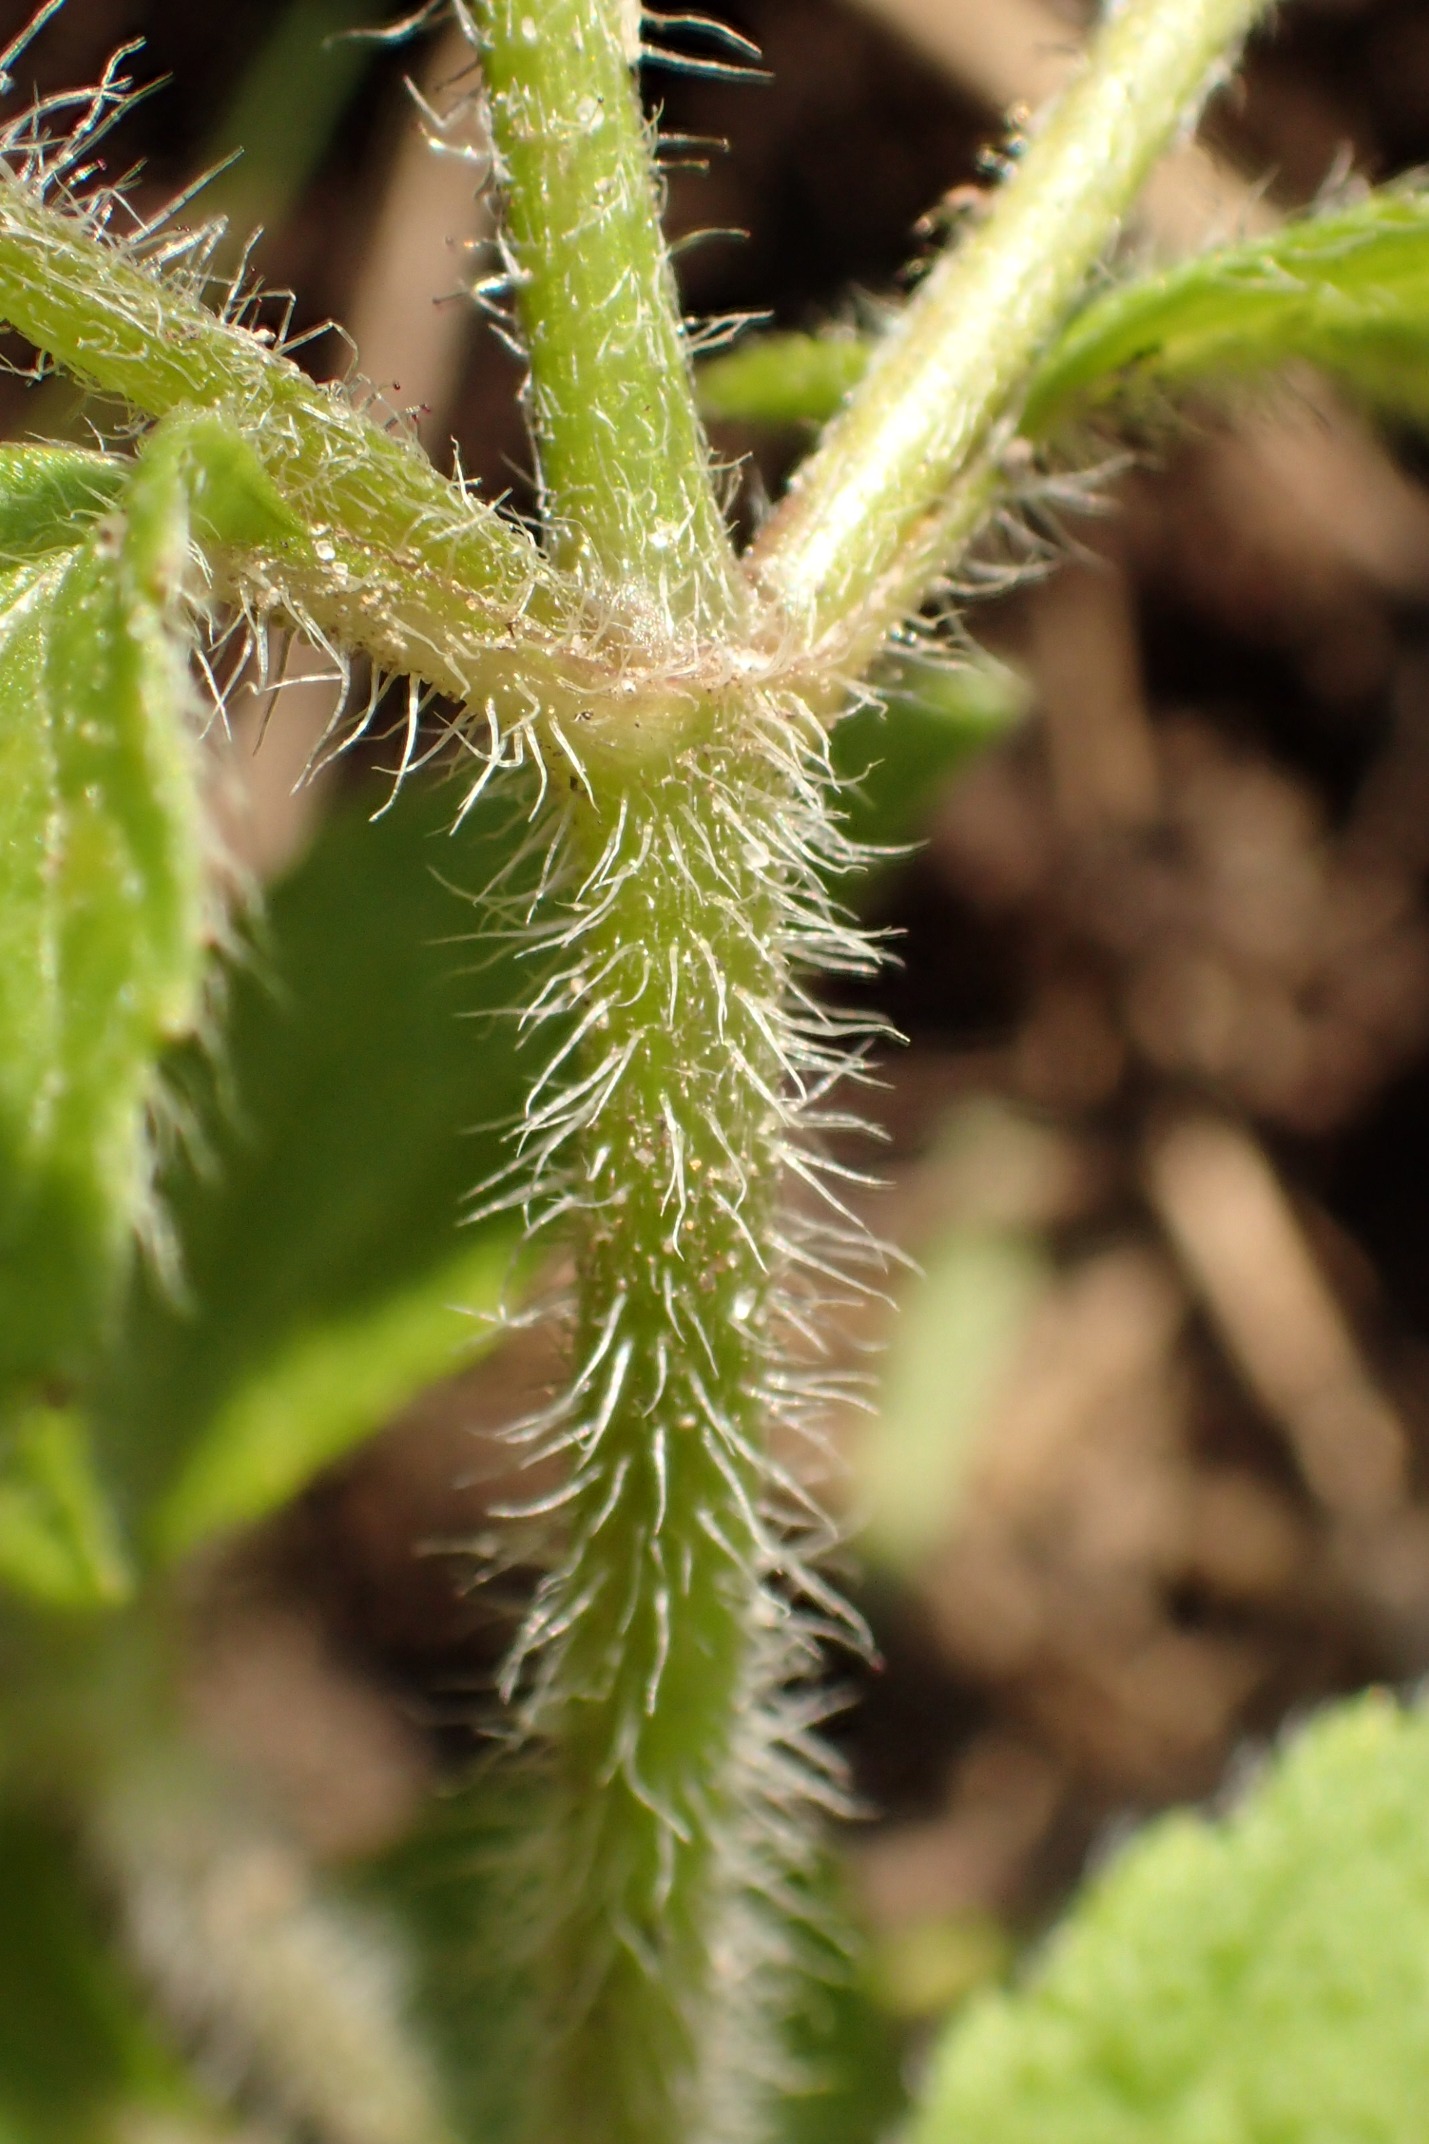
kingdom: Plantae
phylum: Tracheophyta
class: Magnoliopsida
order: Asterales
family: Asteraceae
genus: Galinsoga
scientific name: Galinsoga quadriradiata
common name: Kirtel-kortstråle
